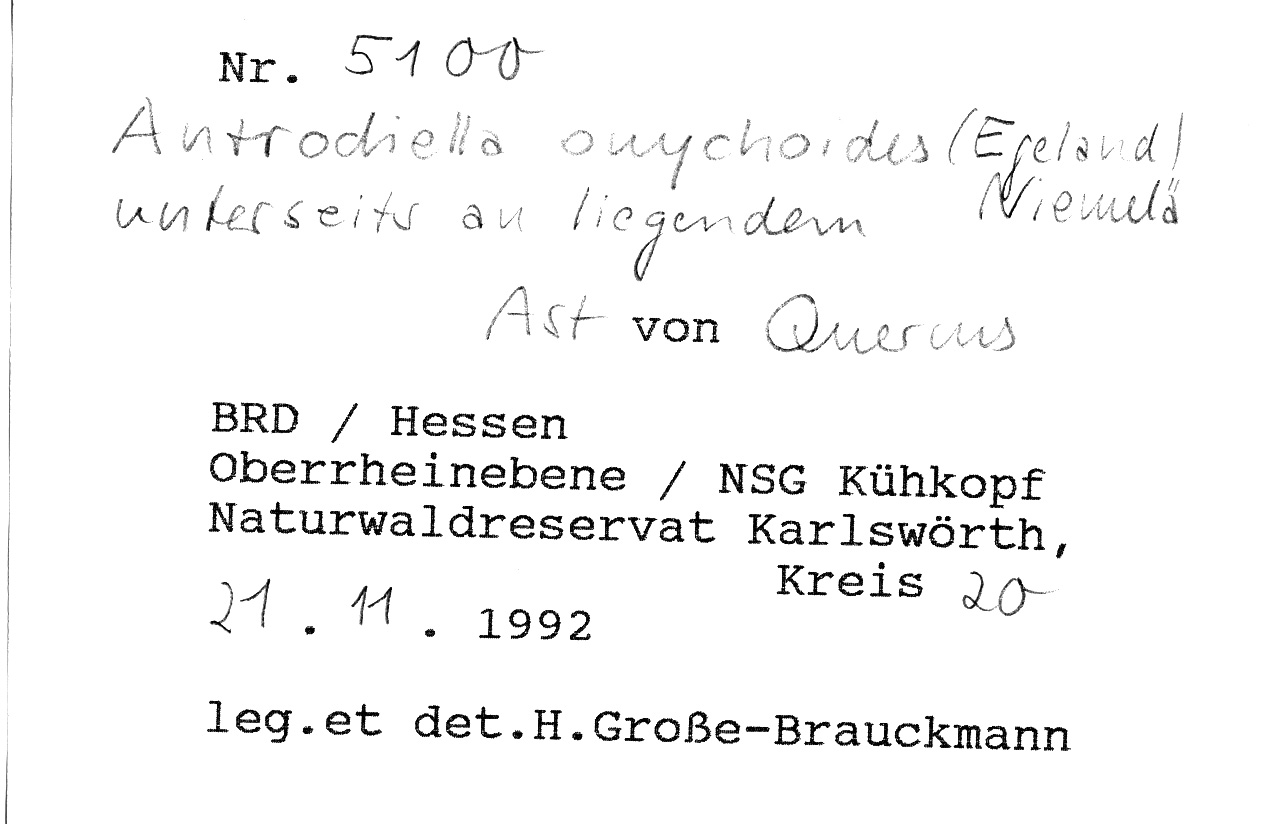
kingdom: Plantae
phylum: Tracheophyta
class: Magnoliopsida
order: Fagales
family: Fagaceae
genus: Quercus
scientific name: Quercus
